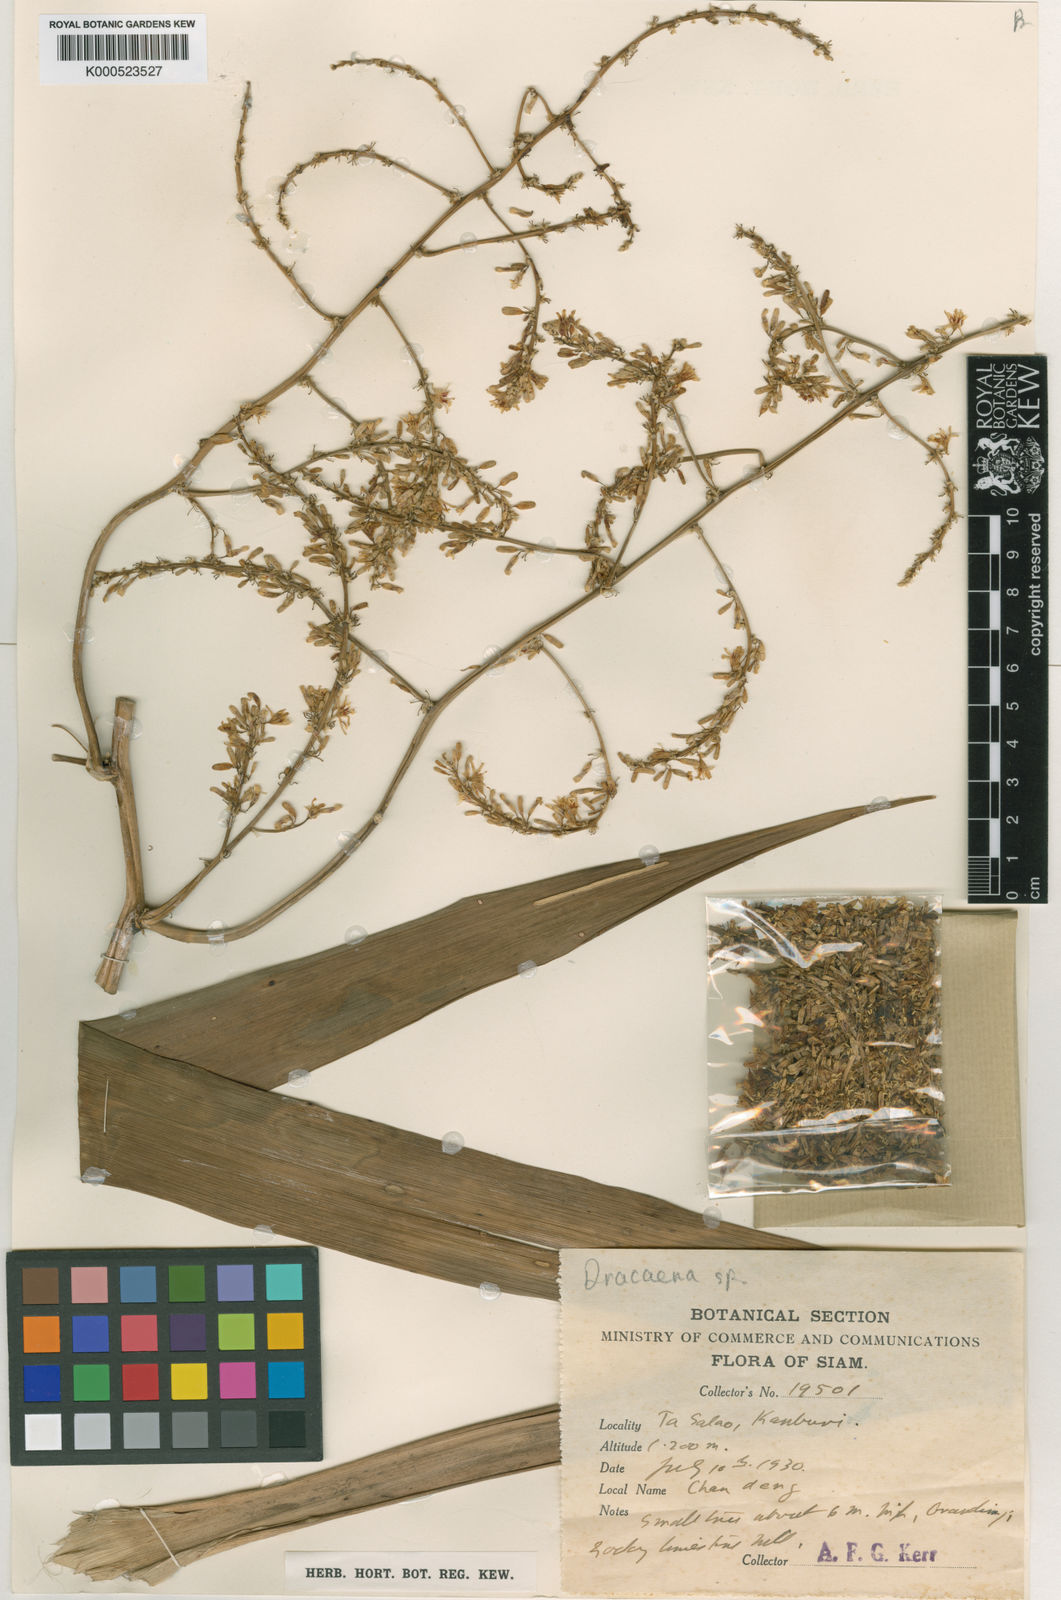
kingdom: Plantae
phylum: Tracheophyta
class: Liliopsida
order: Asparagales
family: Asparagaceae
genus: Dracaena
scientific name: Dracaena
